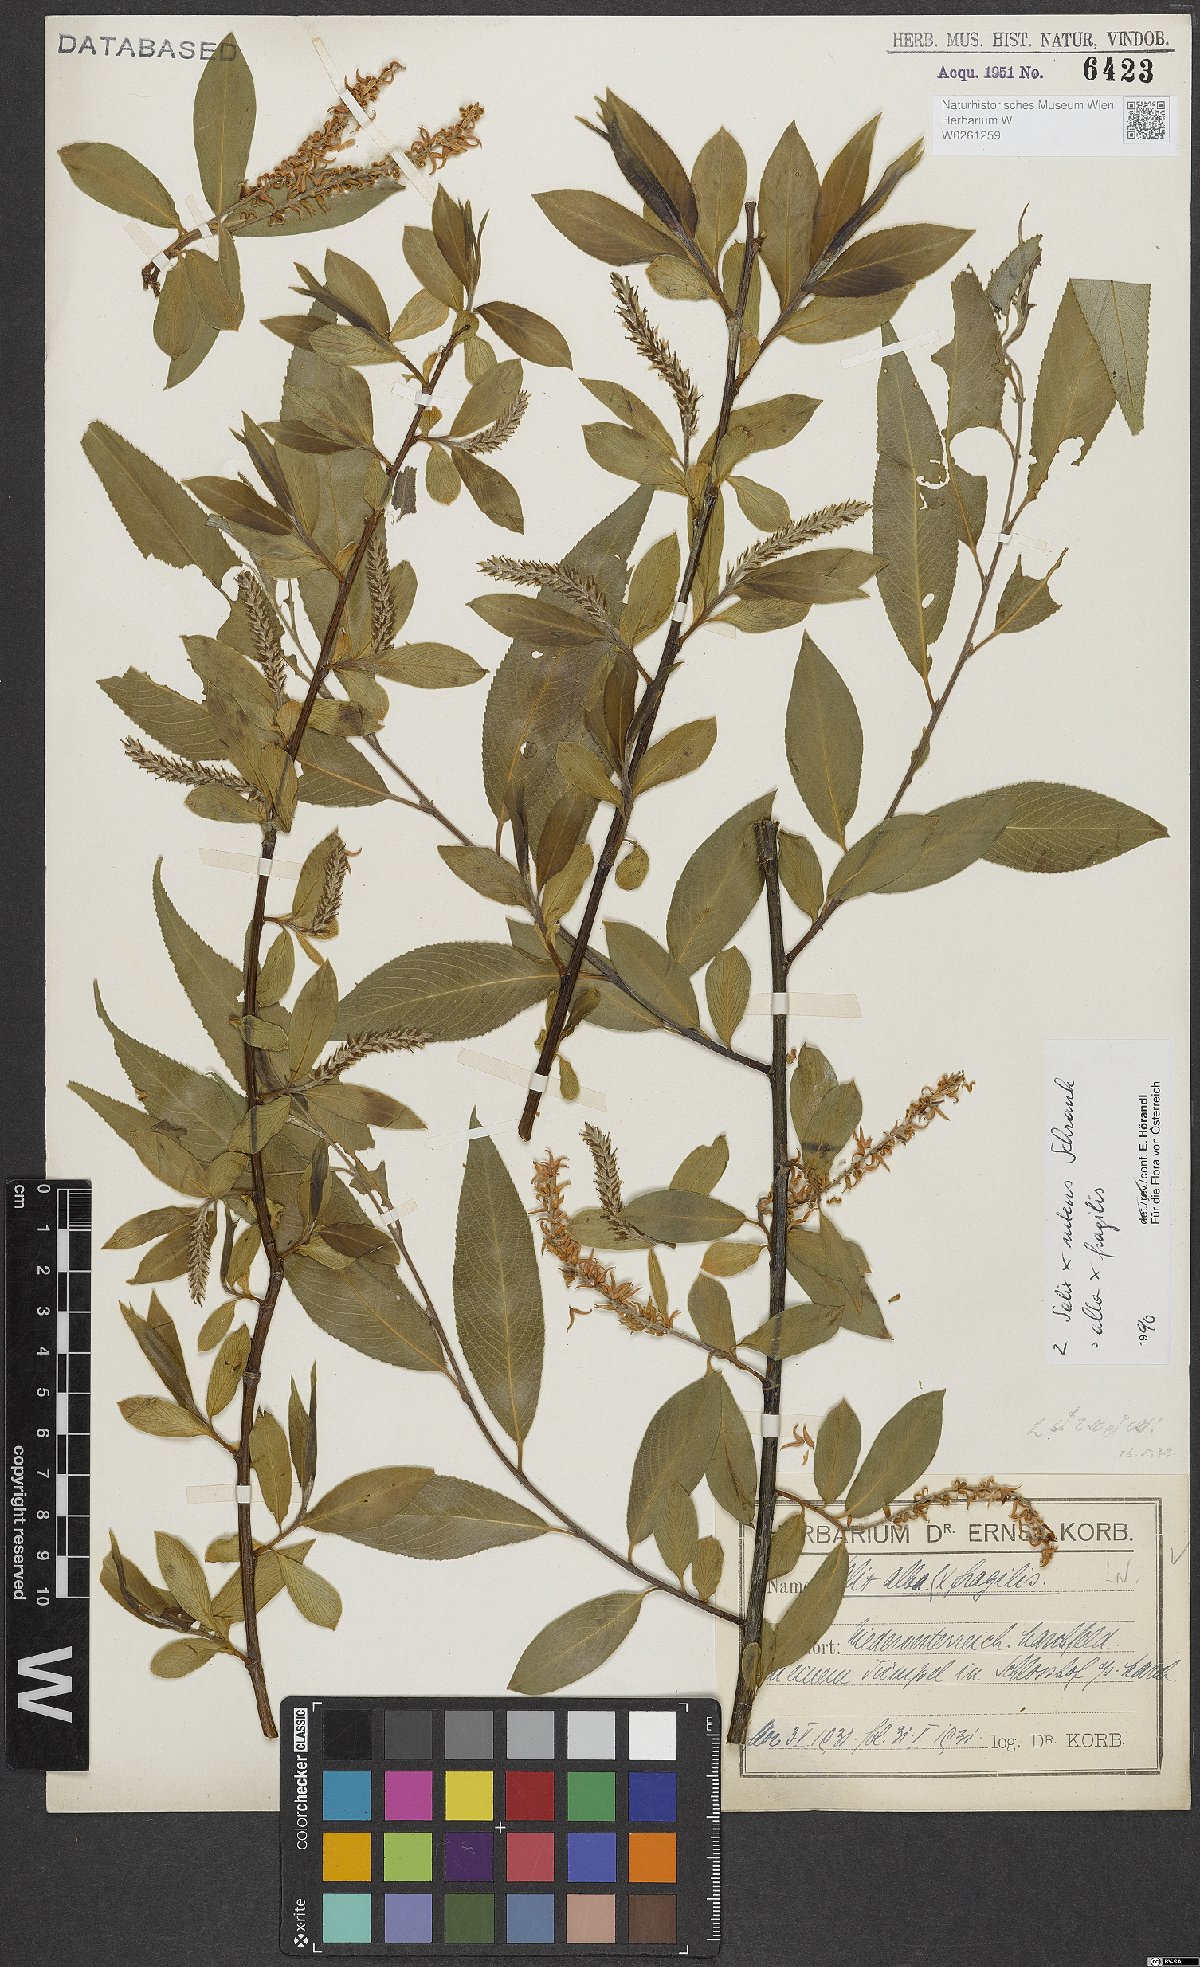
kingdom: Plantae
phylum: Tracheophyta
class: Magnoliopsida
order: Malpighiales
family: Salicaceae
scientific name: Salicaceae
